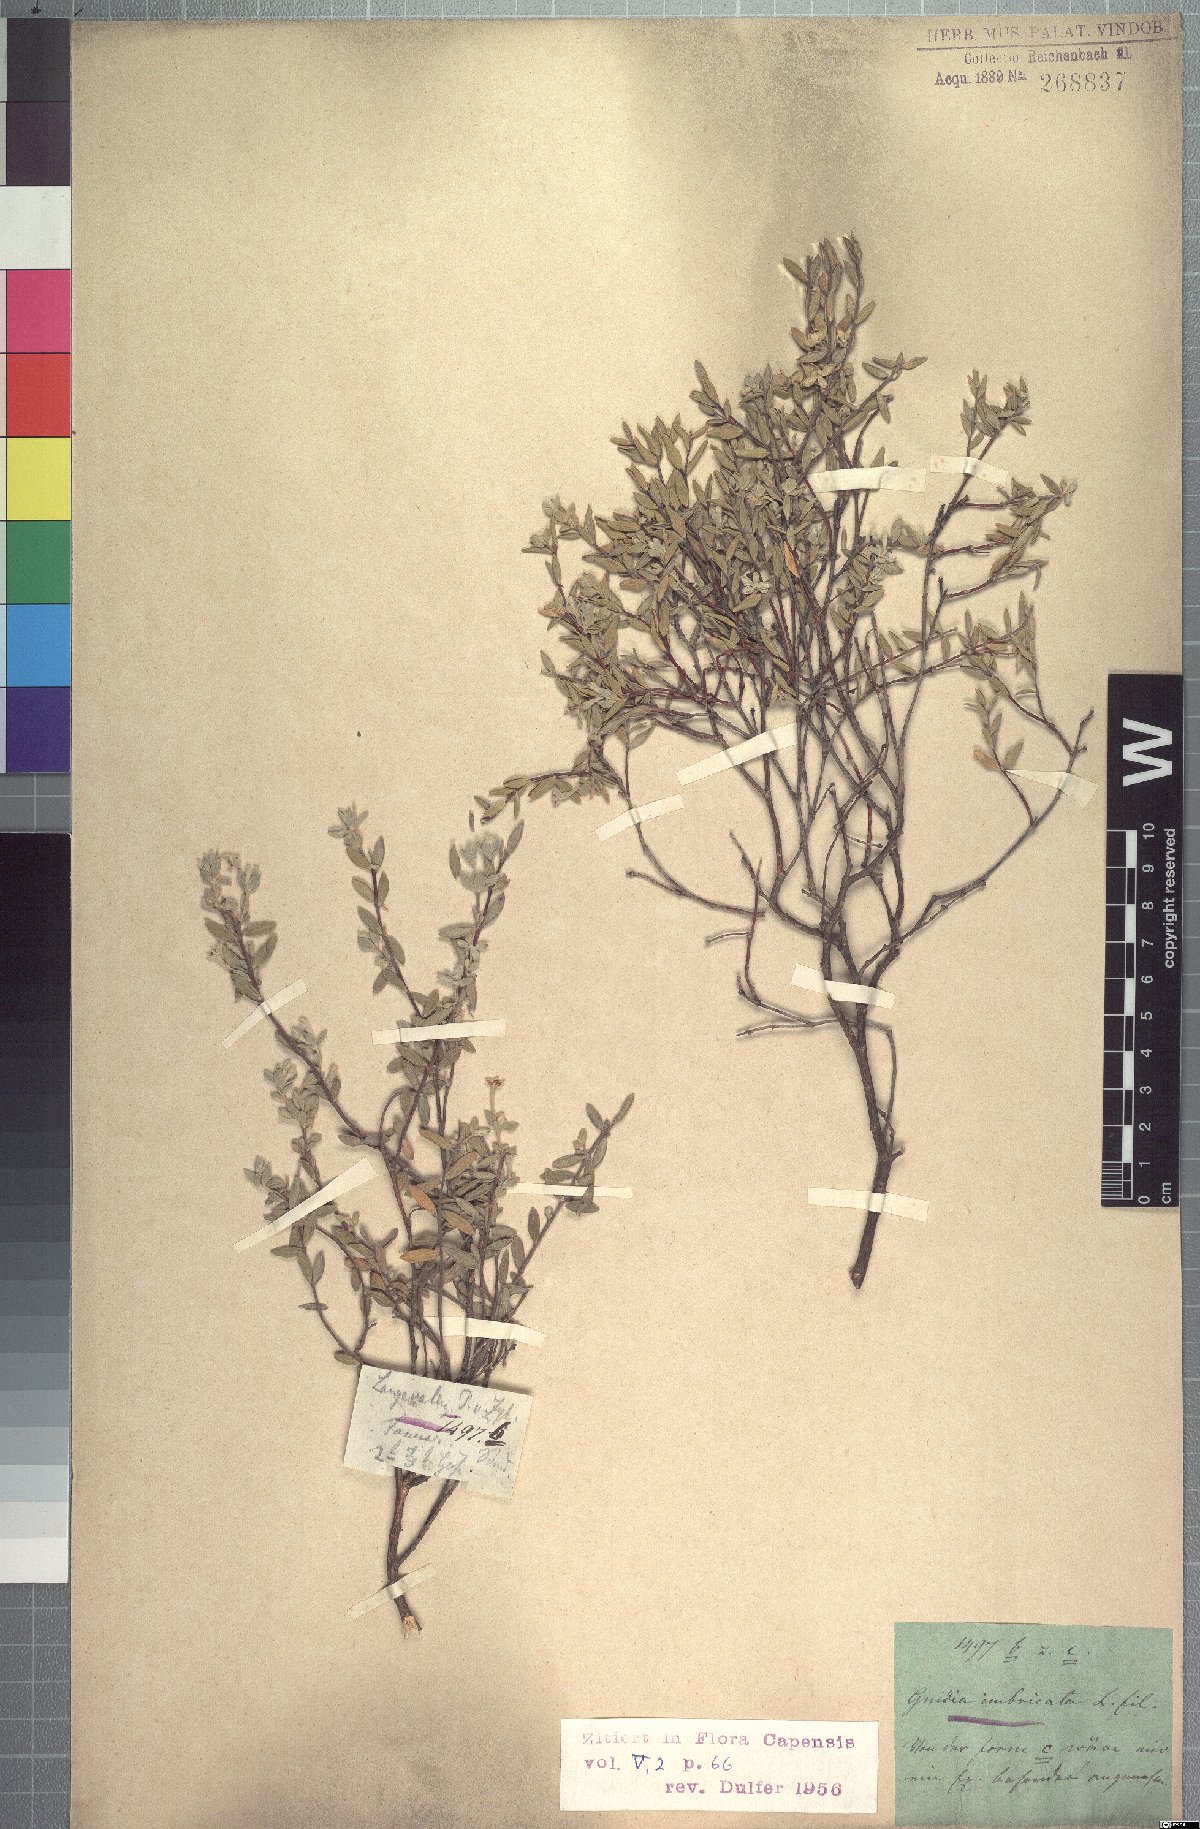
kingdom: Plantae
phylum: Tracheophyta
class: Magnoliopsida
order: Malvales
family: Thymelaeaceae
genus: Gnidia
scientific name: Gnidia imbricata
